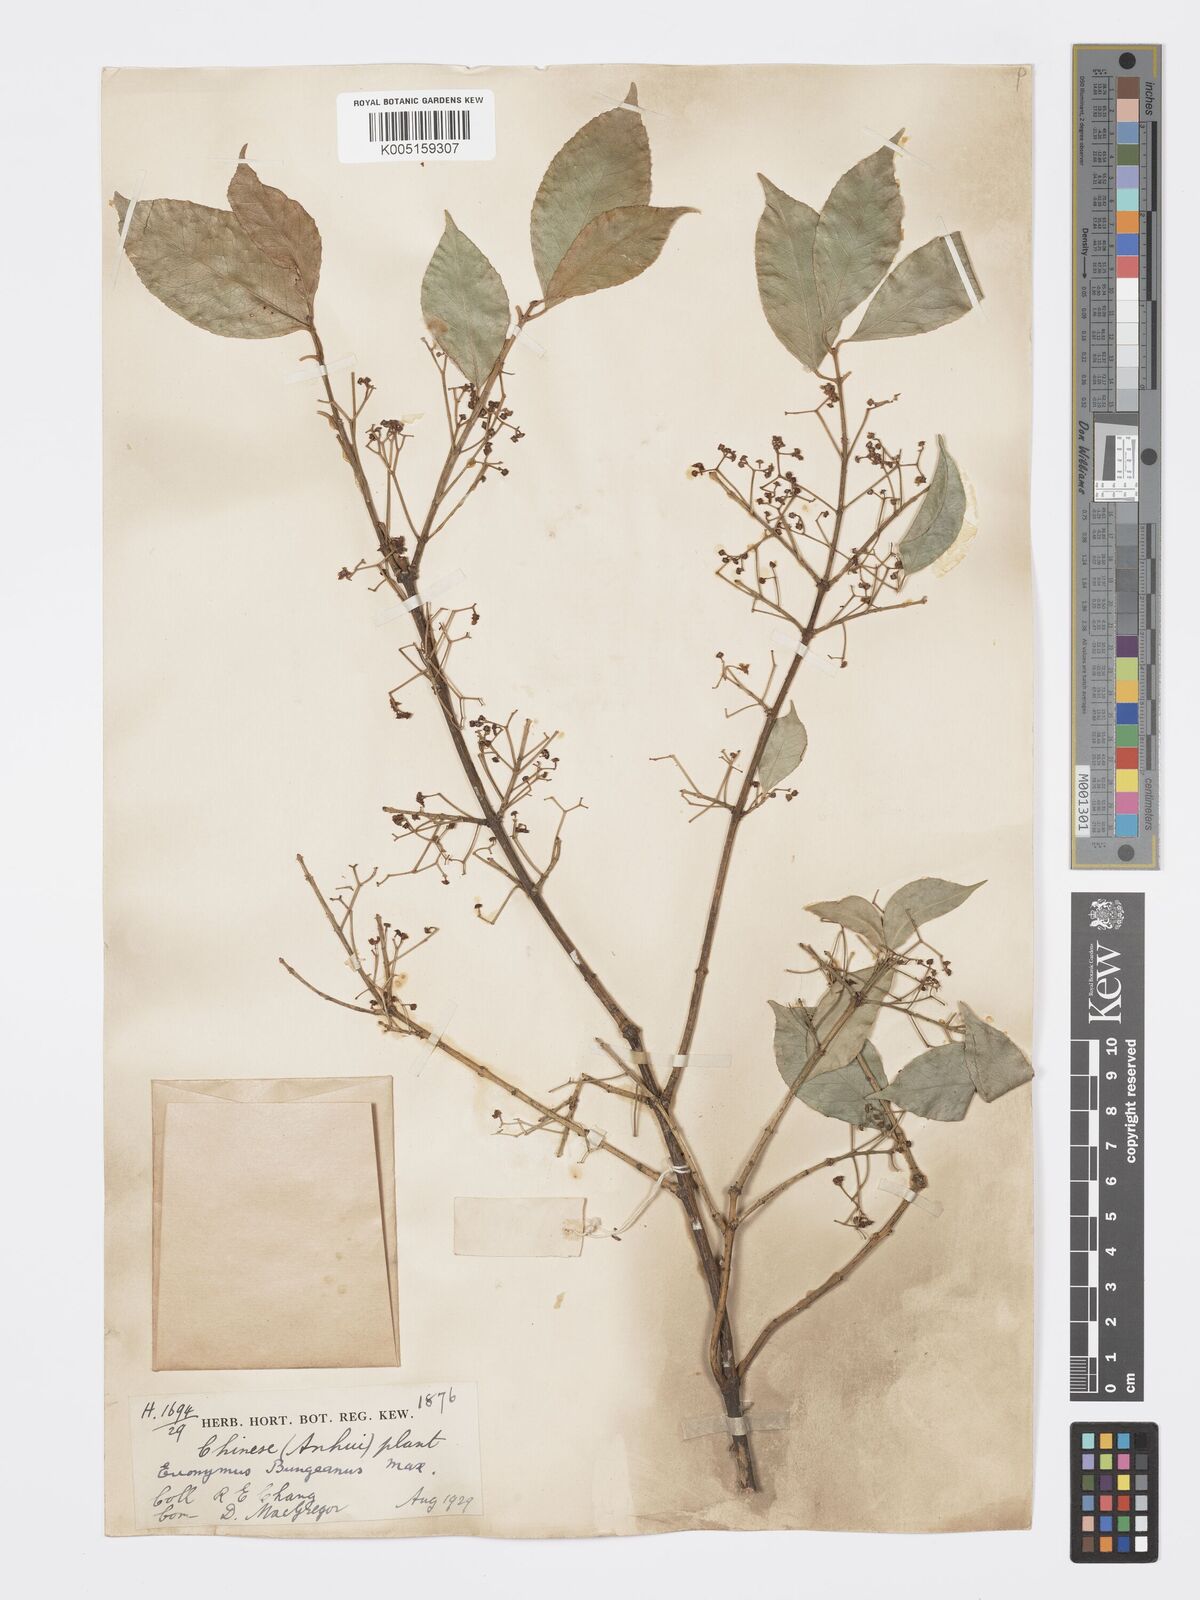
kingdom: Plantae
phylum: Tracheophyta
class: Magnoliopsida
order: Celastrales
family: Celastraceae
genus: Euonymus
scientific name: Euonymus maackii
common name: Hamilton's spindletree
